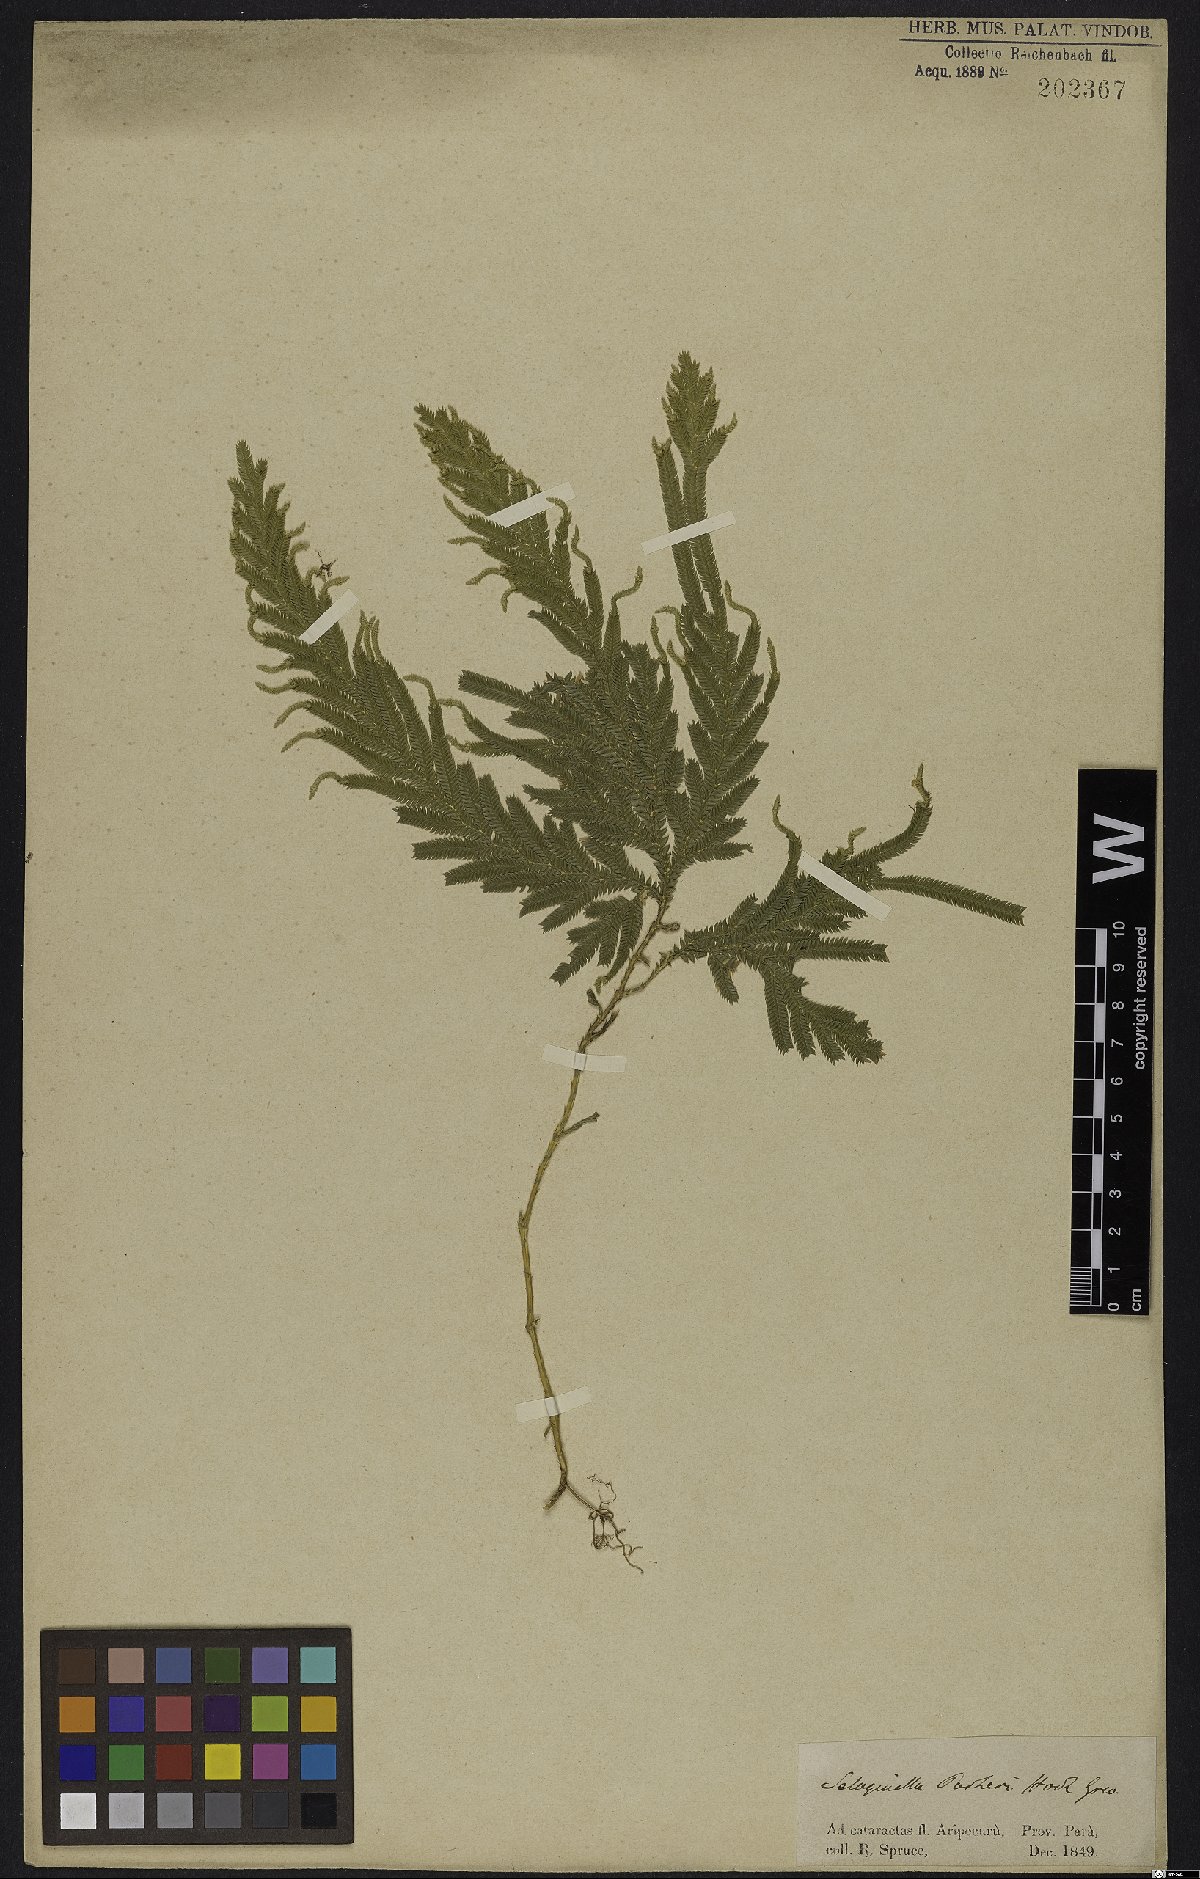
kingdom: Plantae
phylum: Tracheophyta
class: Lycopodiopsida
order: Selaginellales
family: Selaginellaceae
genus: Selaginella
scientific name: Selaginella parkeri
